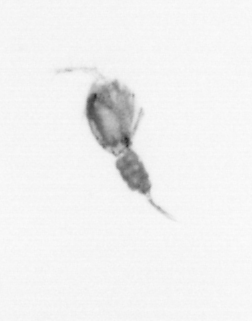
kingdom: Animalia
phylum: Arthropoda
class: Copepoda
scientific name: Copepoda
